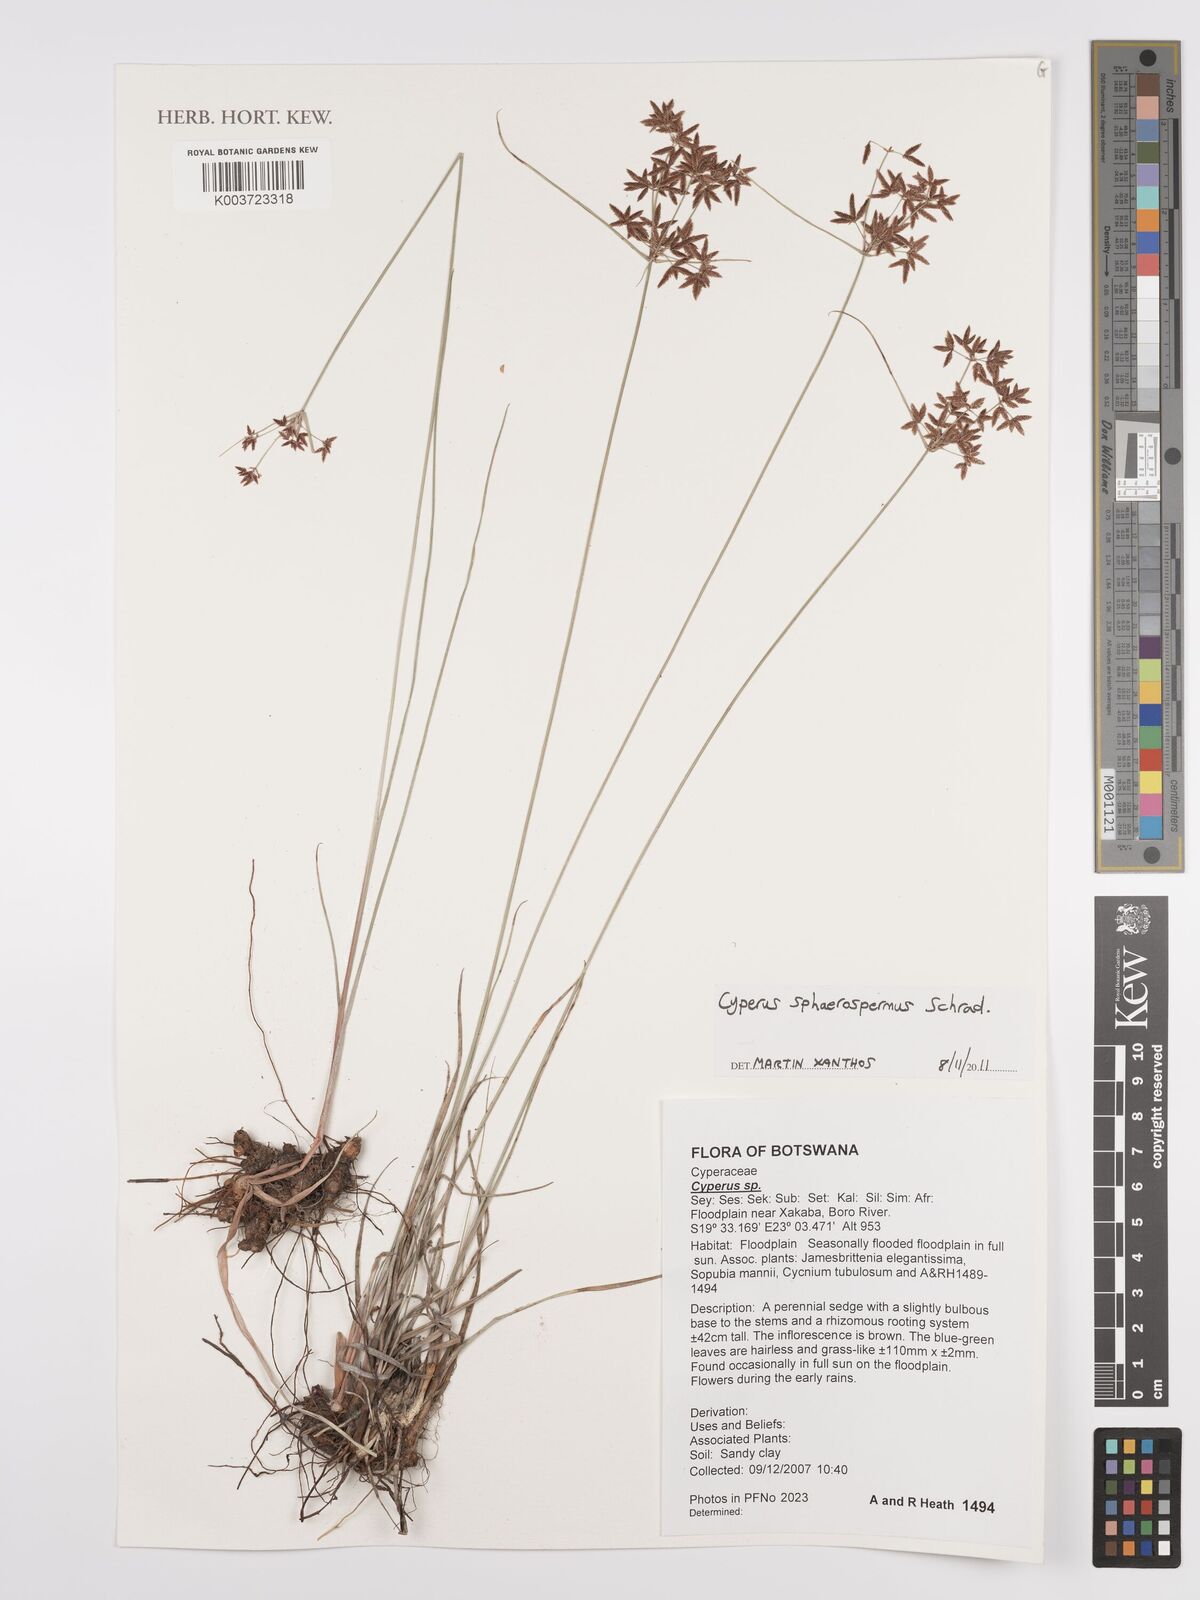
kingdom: Plantae
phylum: Tracheophyta
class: Liliopsida
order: Poales
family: Cyperaceae
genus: Cyperus
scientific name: Cyperus denudatus
